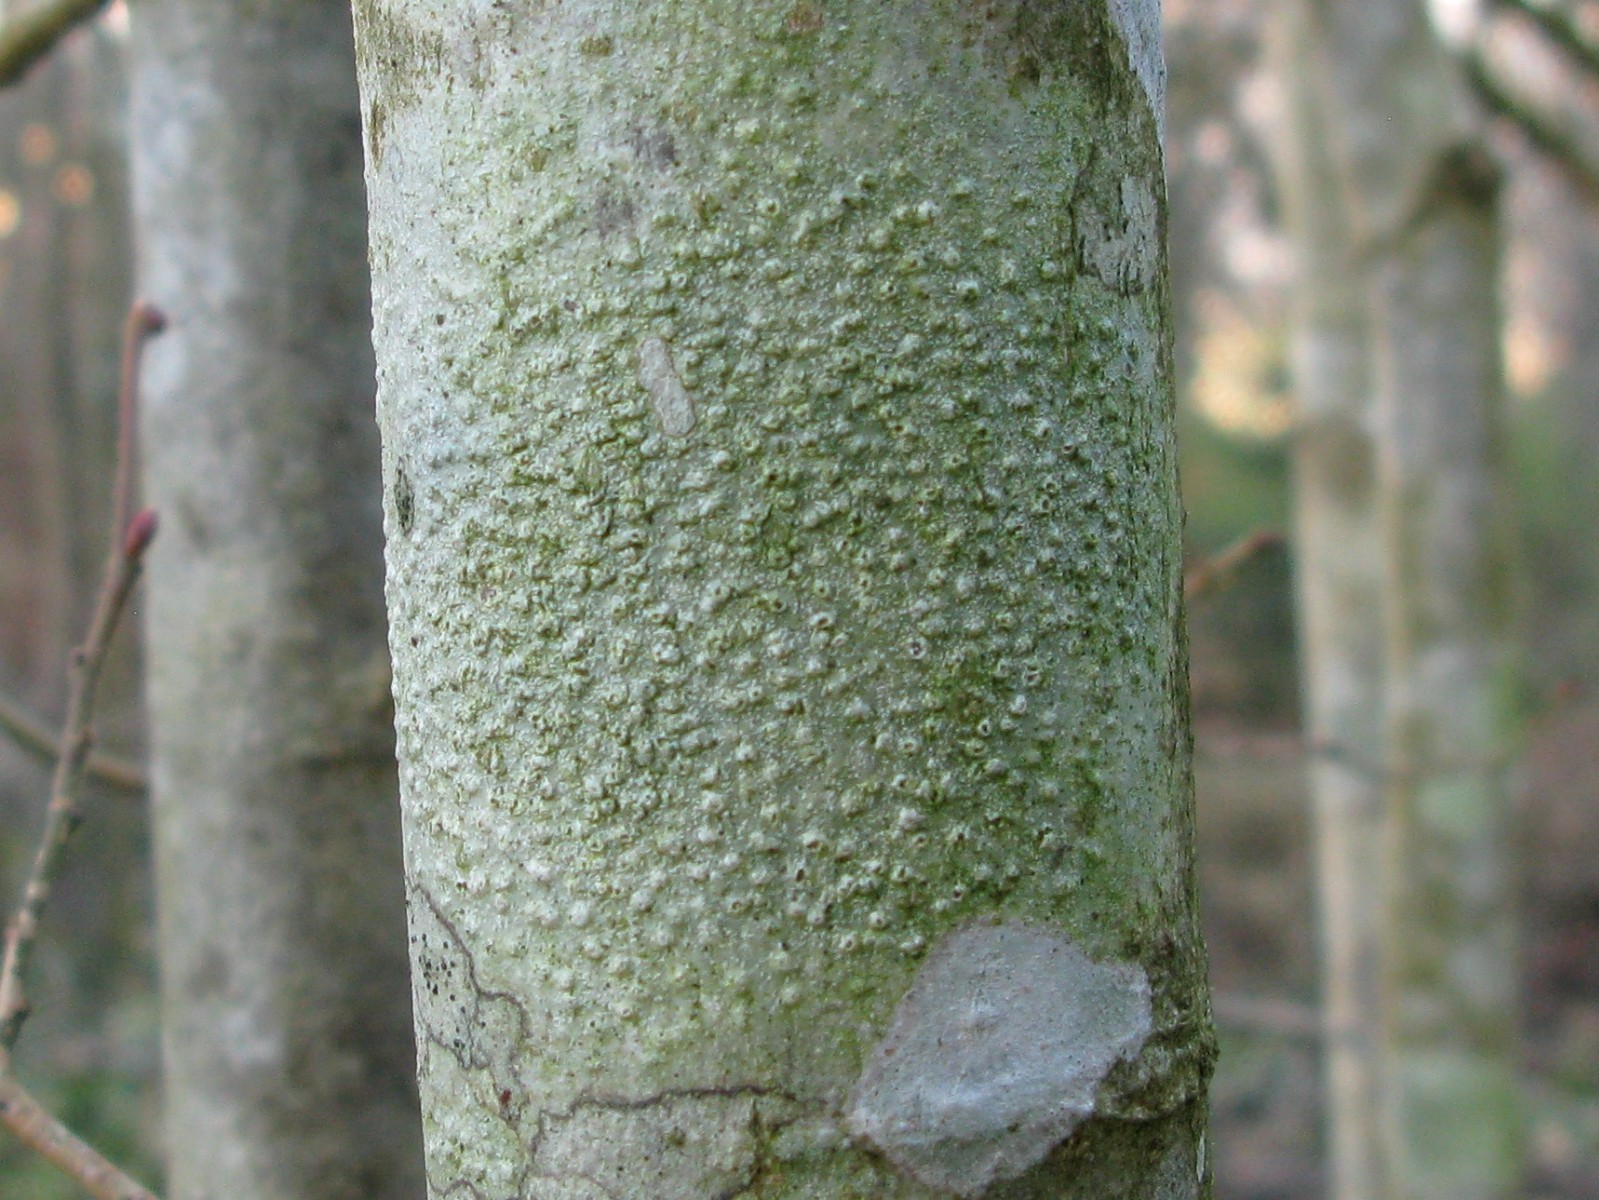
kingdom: Fungi
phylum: Ascomycota
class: Lecanoromycetes
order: Pertusariales
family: Pertusariaceae
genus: Pertusaria
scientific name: Pertusaria leioplaca
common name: tynd prikvortelav
